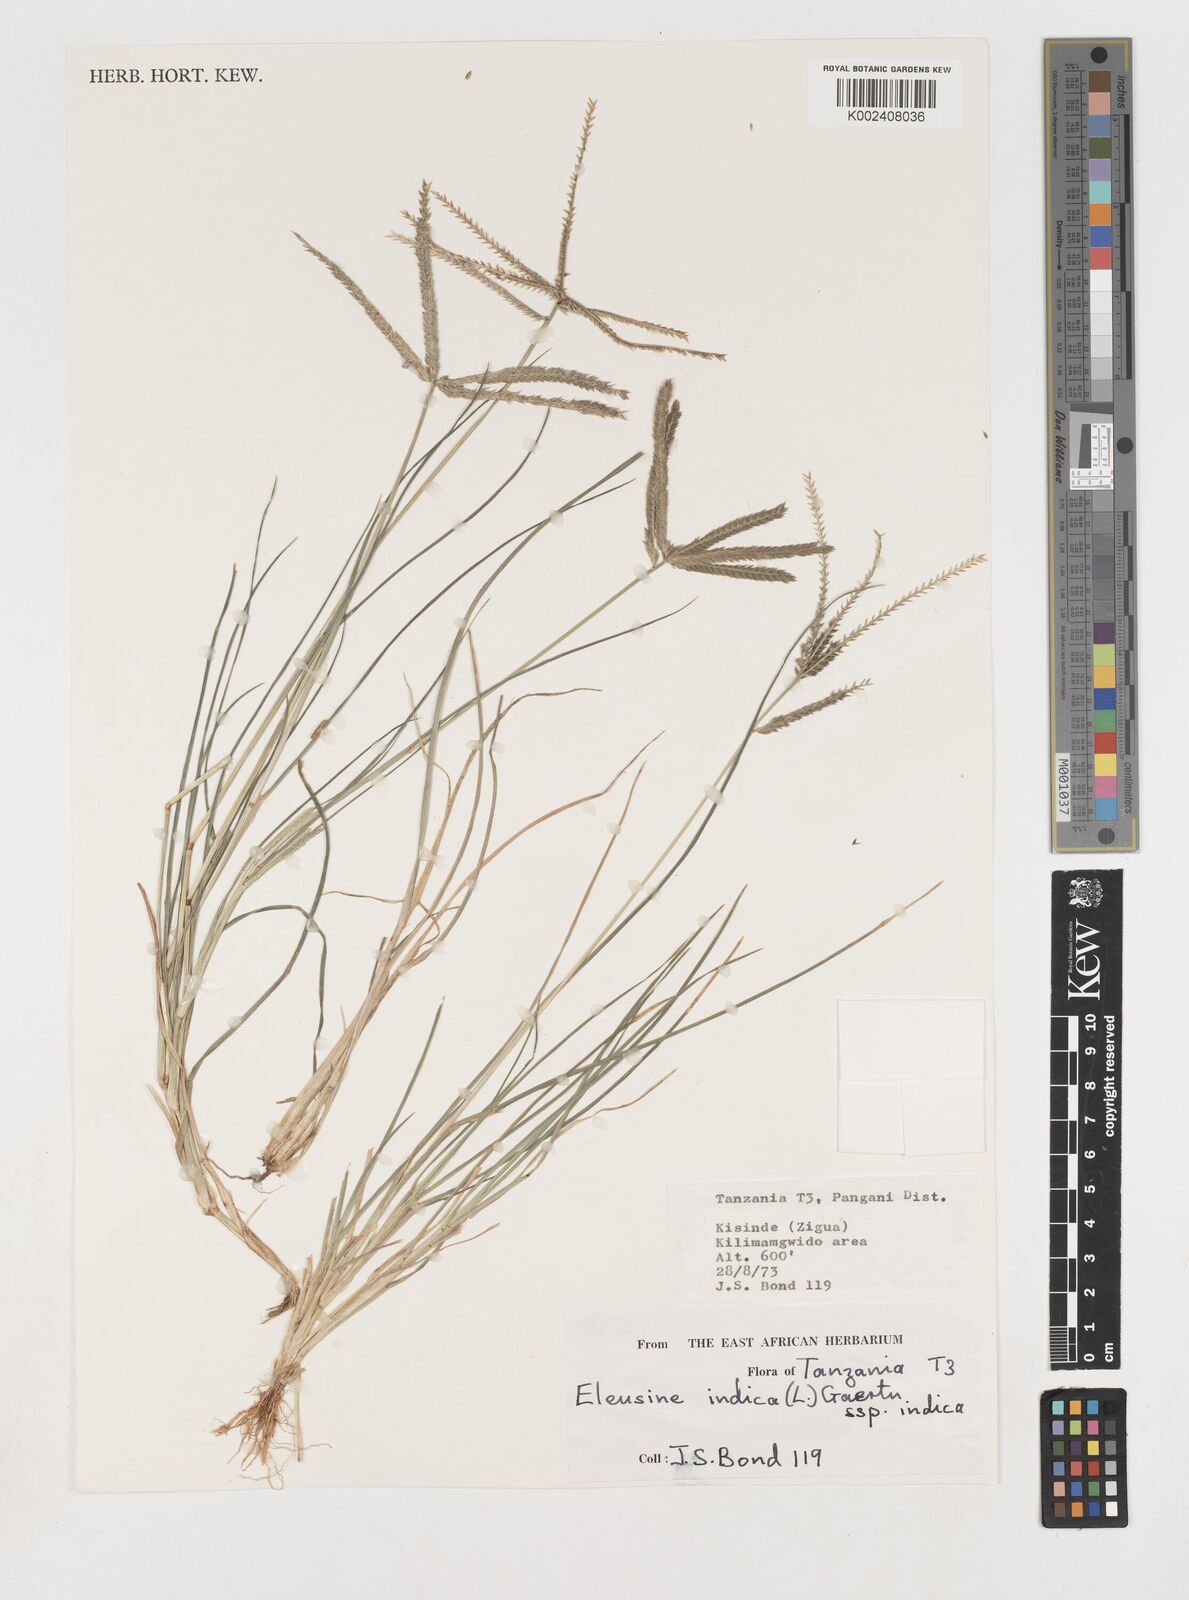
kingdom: Plantae
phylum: Tracheophyta
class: Liliopsida
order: Poales
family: Poaceae
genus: Eleusine
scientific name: Eleusine indica
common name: Yard-grass
